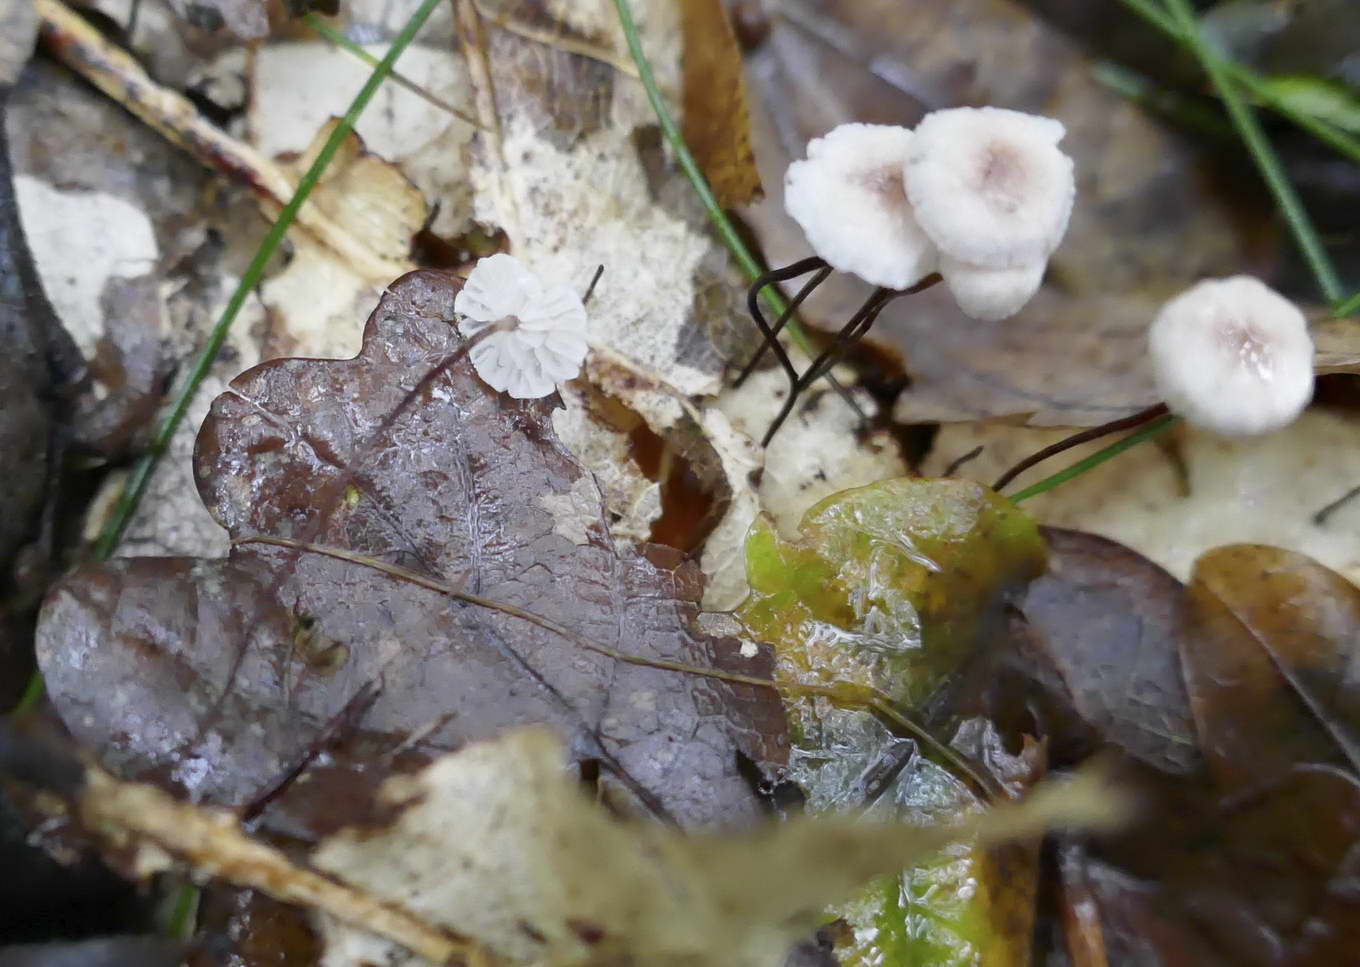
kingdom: Fungi
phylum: Basidiomycota
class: Agaricomycetes
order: Agaricales
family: Omphalotaceae
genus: Collybiopsis
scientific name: Collybiopsis quercophila
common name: egeblads-bruskhat
